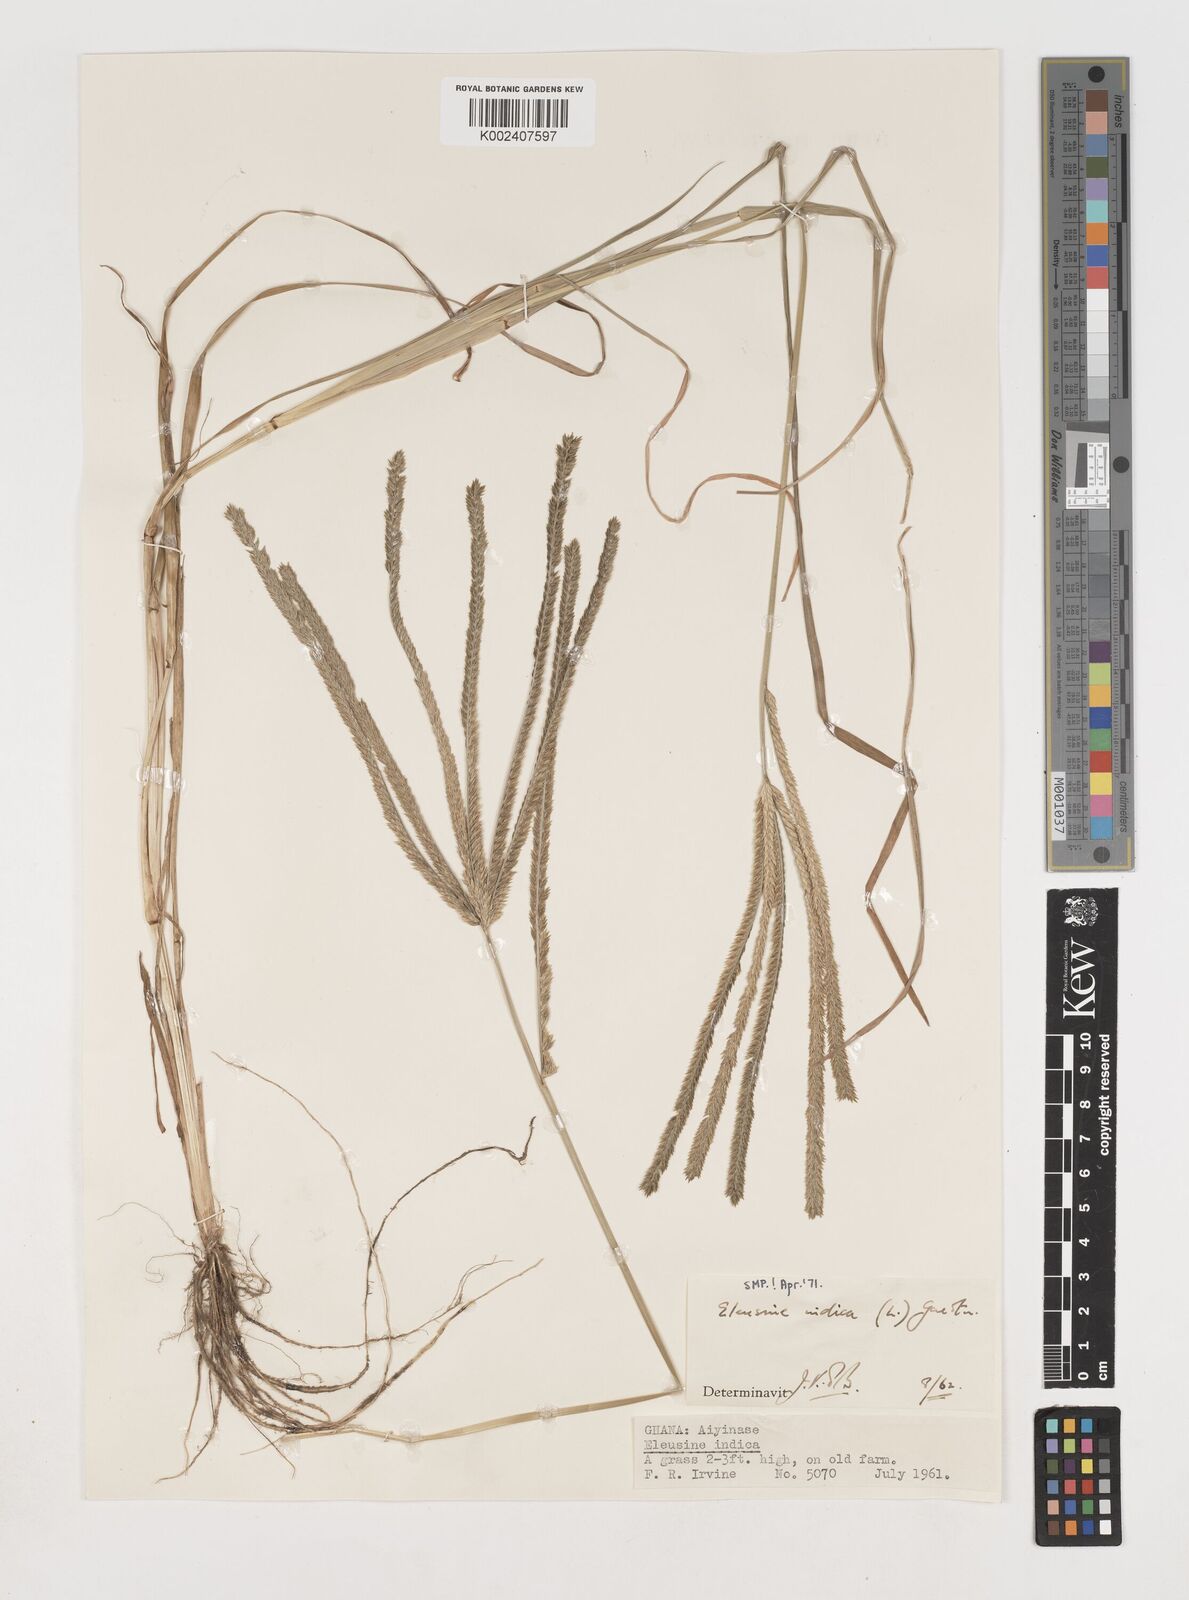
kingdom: Plantae
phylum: Tracheophyta
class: Liliopsida
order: Poales
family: Poaceae
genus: Eleusine
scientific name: Eleusine indica
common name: Yard-grass
